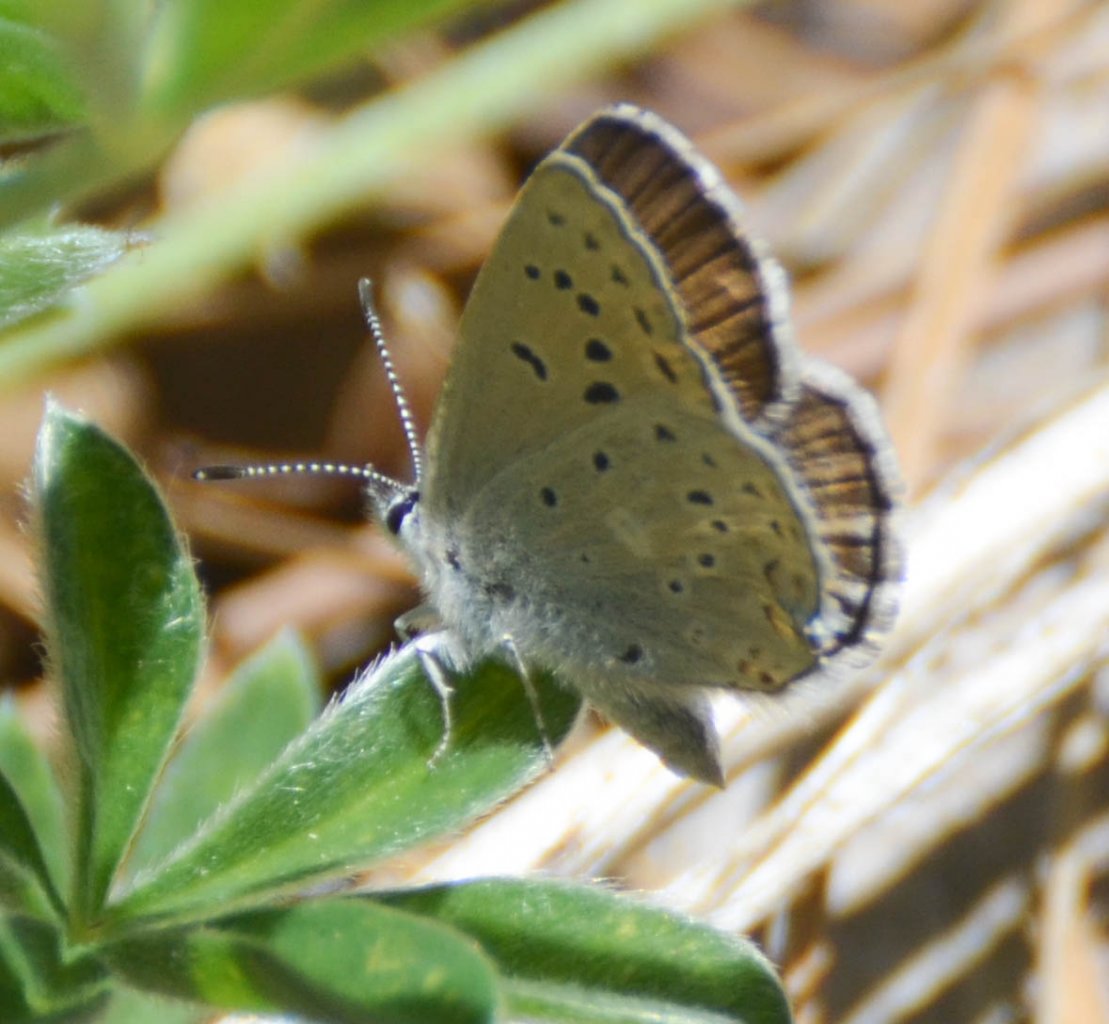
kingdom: Animalia
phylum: Arthropoda
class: Insecta
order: Lepidoptera
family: Lycaenidae
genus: Lycaena
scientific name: Lycaena xanthoides
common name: Great Copper
